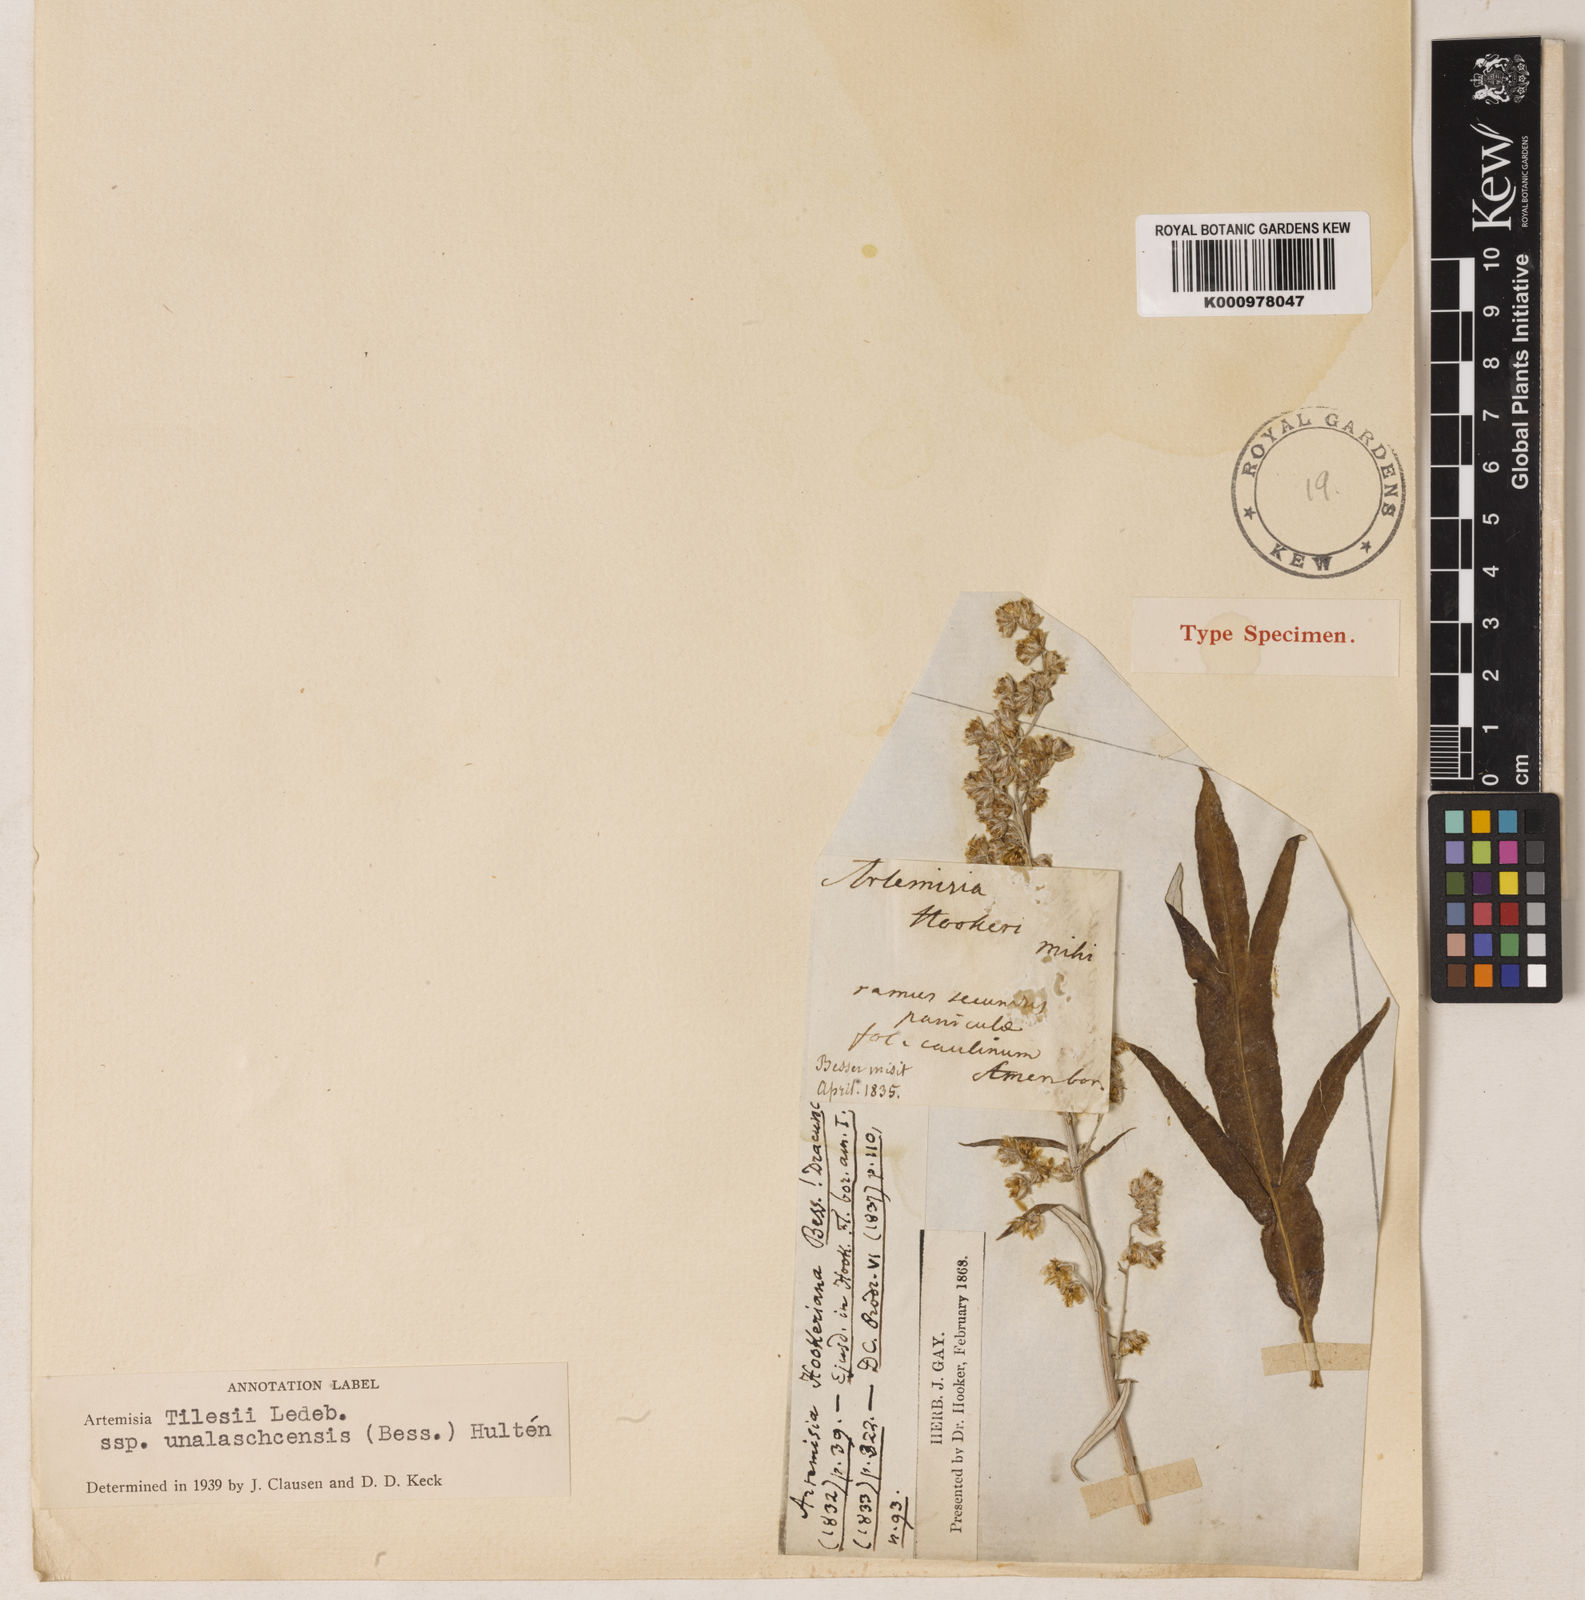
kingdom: Plantae
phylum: Tracheophyta
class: Magnoliopsida
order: Asterales
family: Asteraceae
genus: Artemisia
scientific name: Artemisia tilesii
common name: Aleutian mugwort
